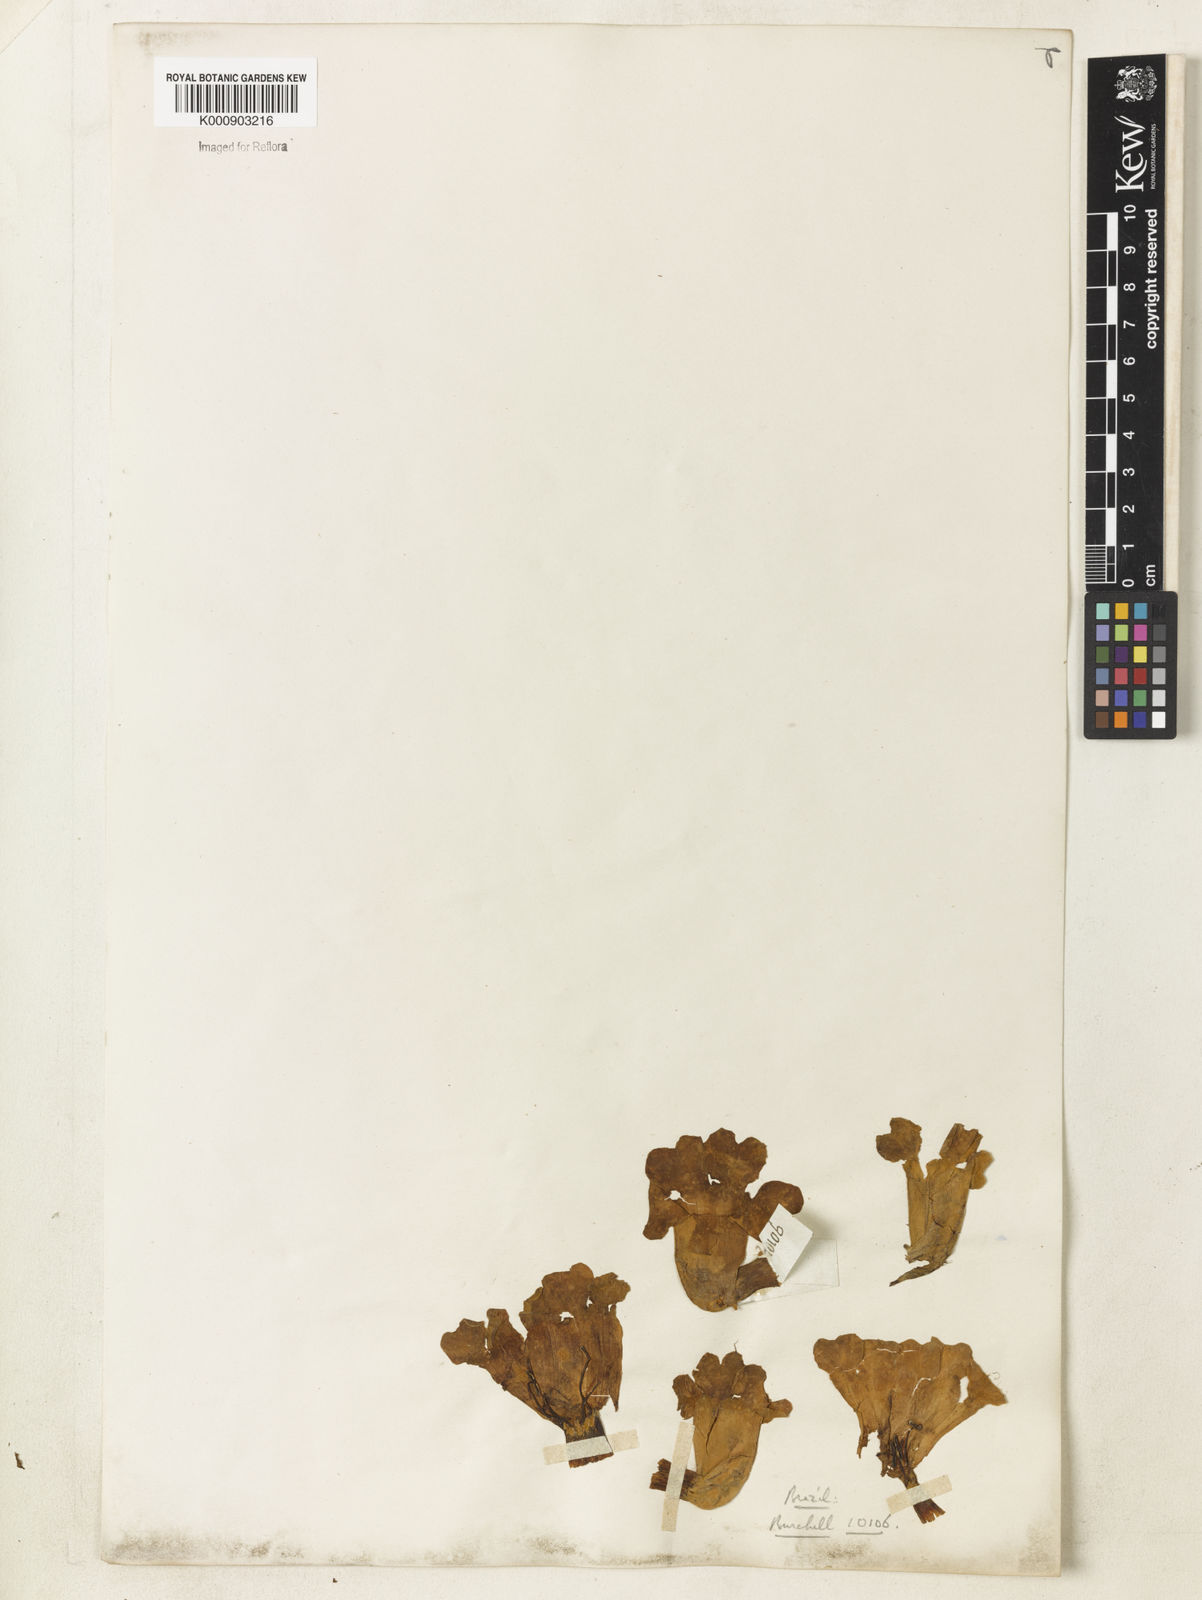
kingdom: Plantae
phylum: Tracheophyta
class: Magnoliopsida
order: Lamiales
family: Bignoniaceae
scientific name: Bignoniaceae
